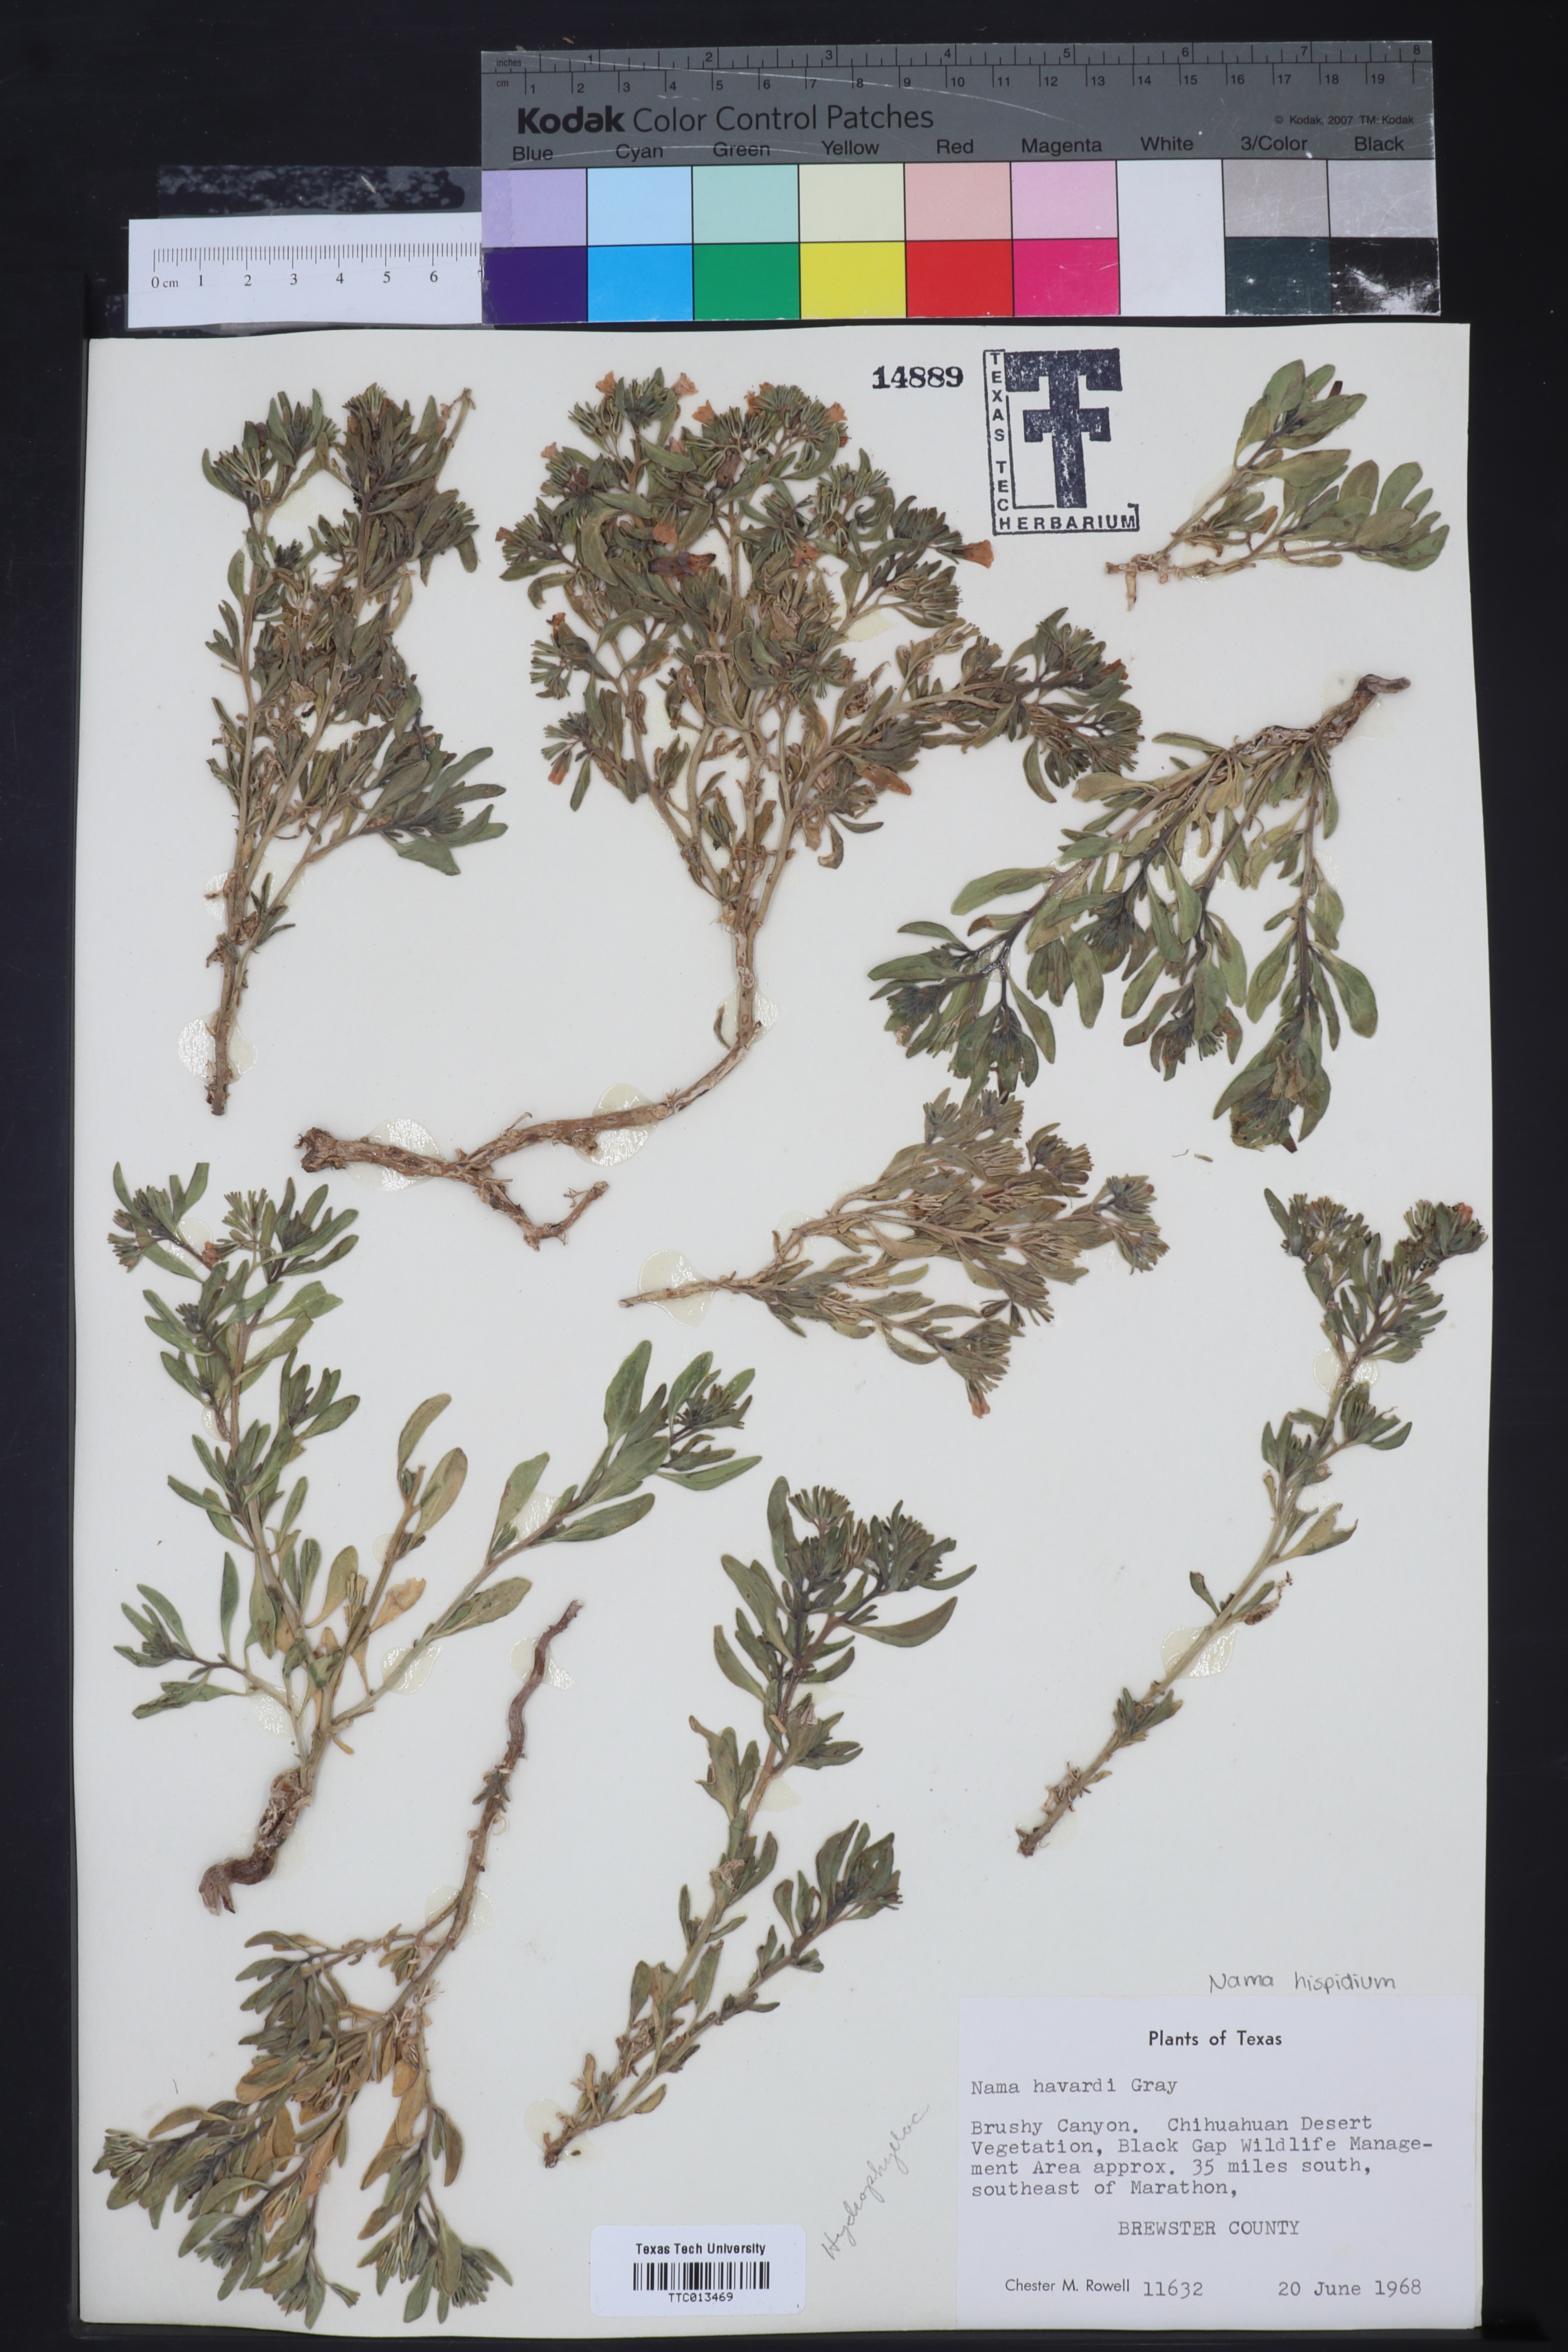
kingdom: Plantae
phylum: Tracheophyta
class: Magnoliopsida
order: Boraginales
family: Namaceae
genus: Nama
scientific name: Nama havardii
